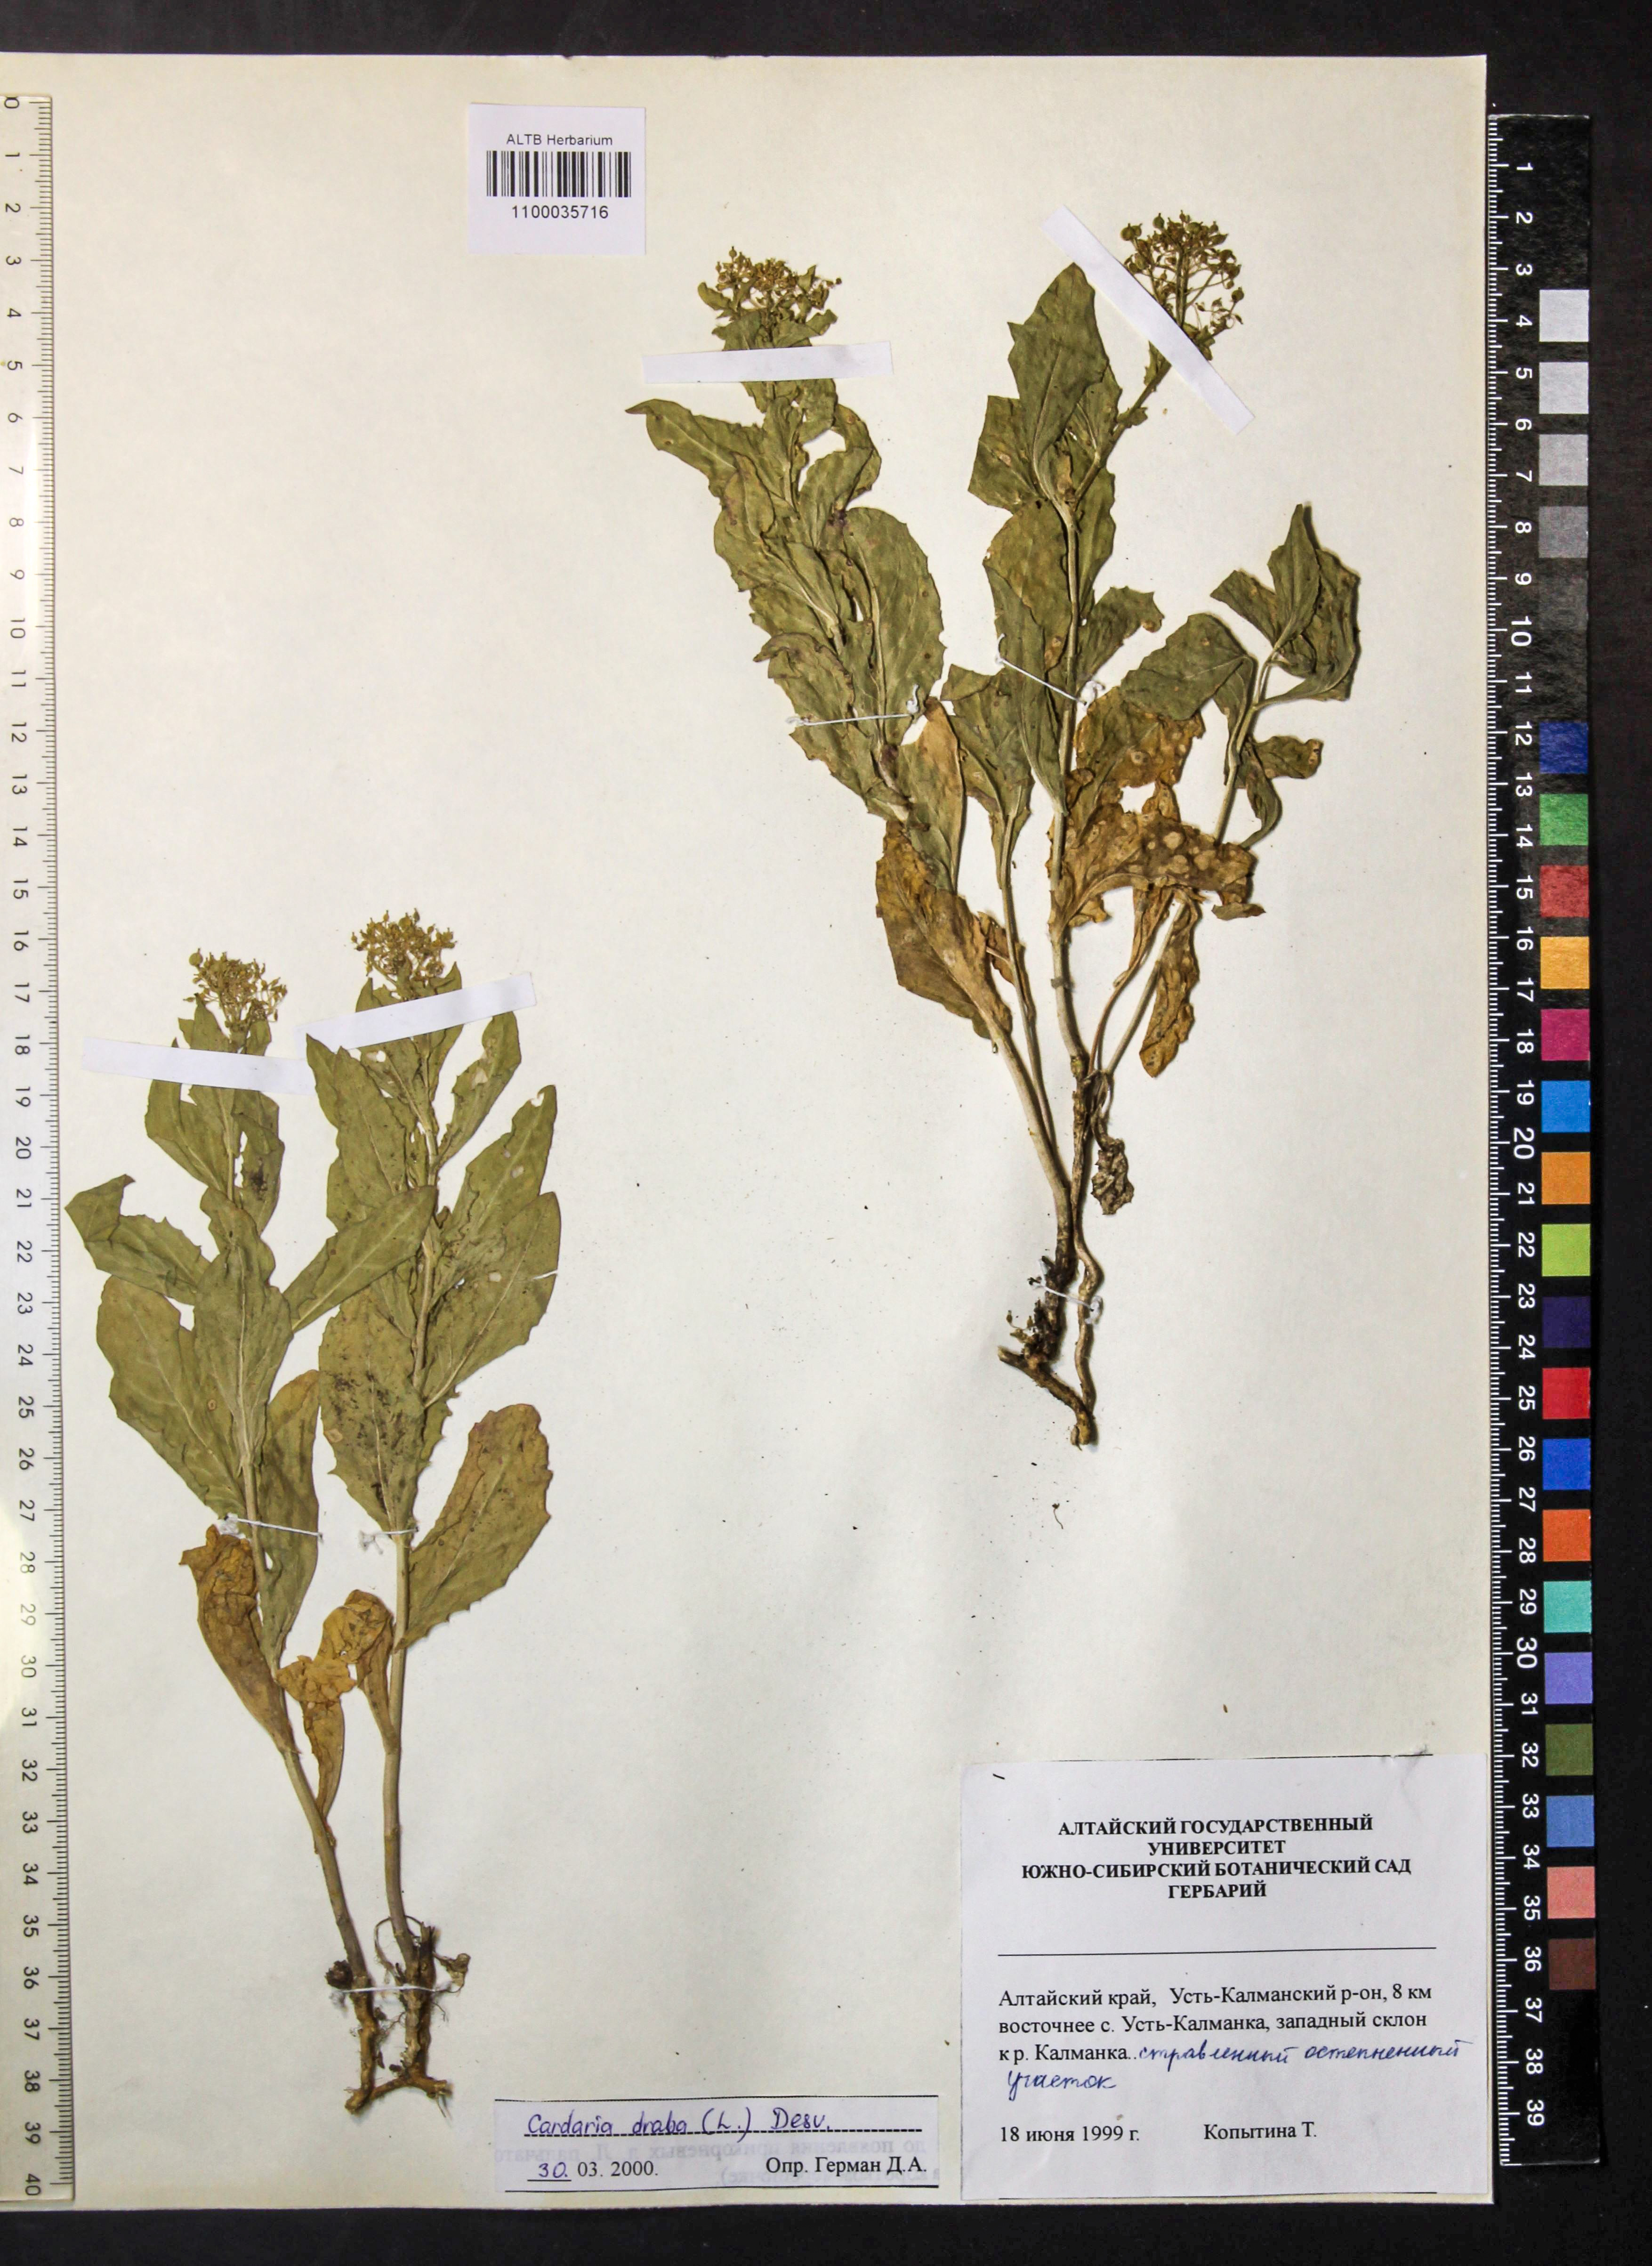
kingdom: Plantae
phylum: Tracheophyta
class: Magnoliopsida
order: Brassicales
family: Brassicaceae
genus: Lepidium
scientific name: Lepidium draba
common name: Hoary cress
